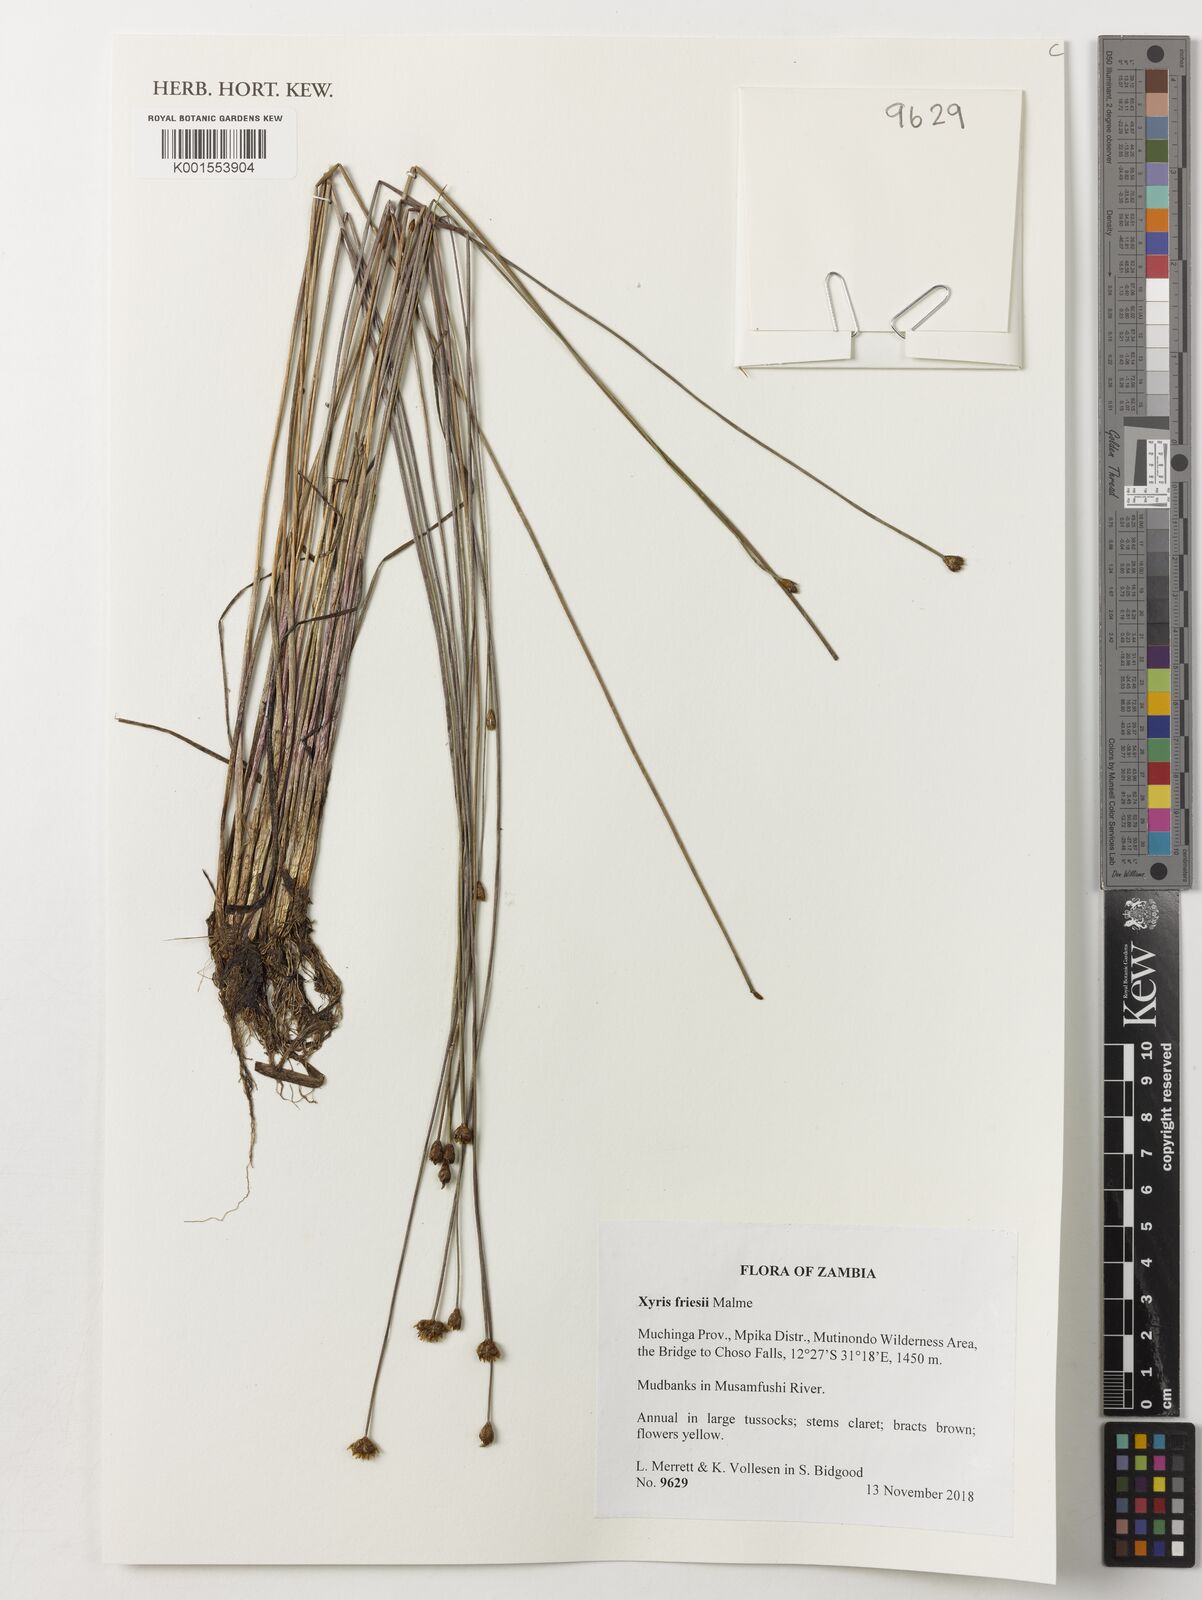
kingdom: Plantae
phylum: Tracheophyta
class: Liliopsida
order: Poales
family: Xyridaceae
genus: Xyris
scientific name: Xyris friesii
